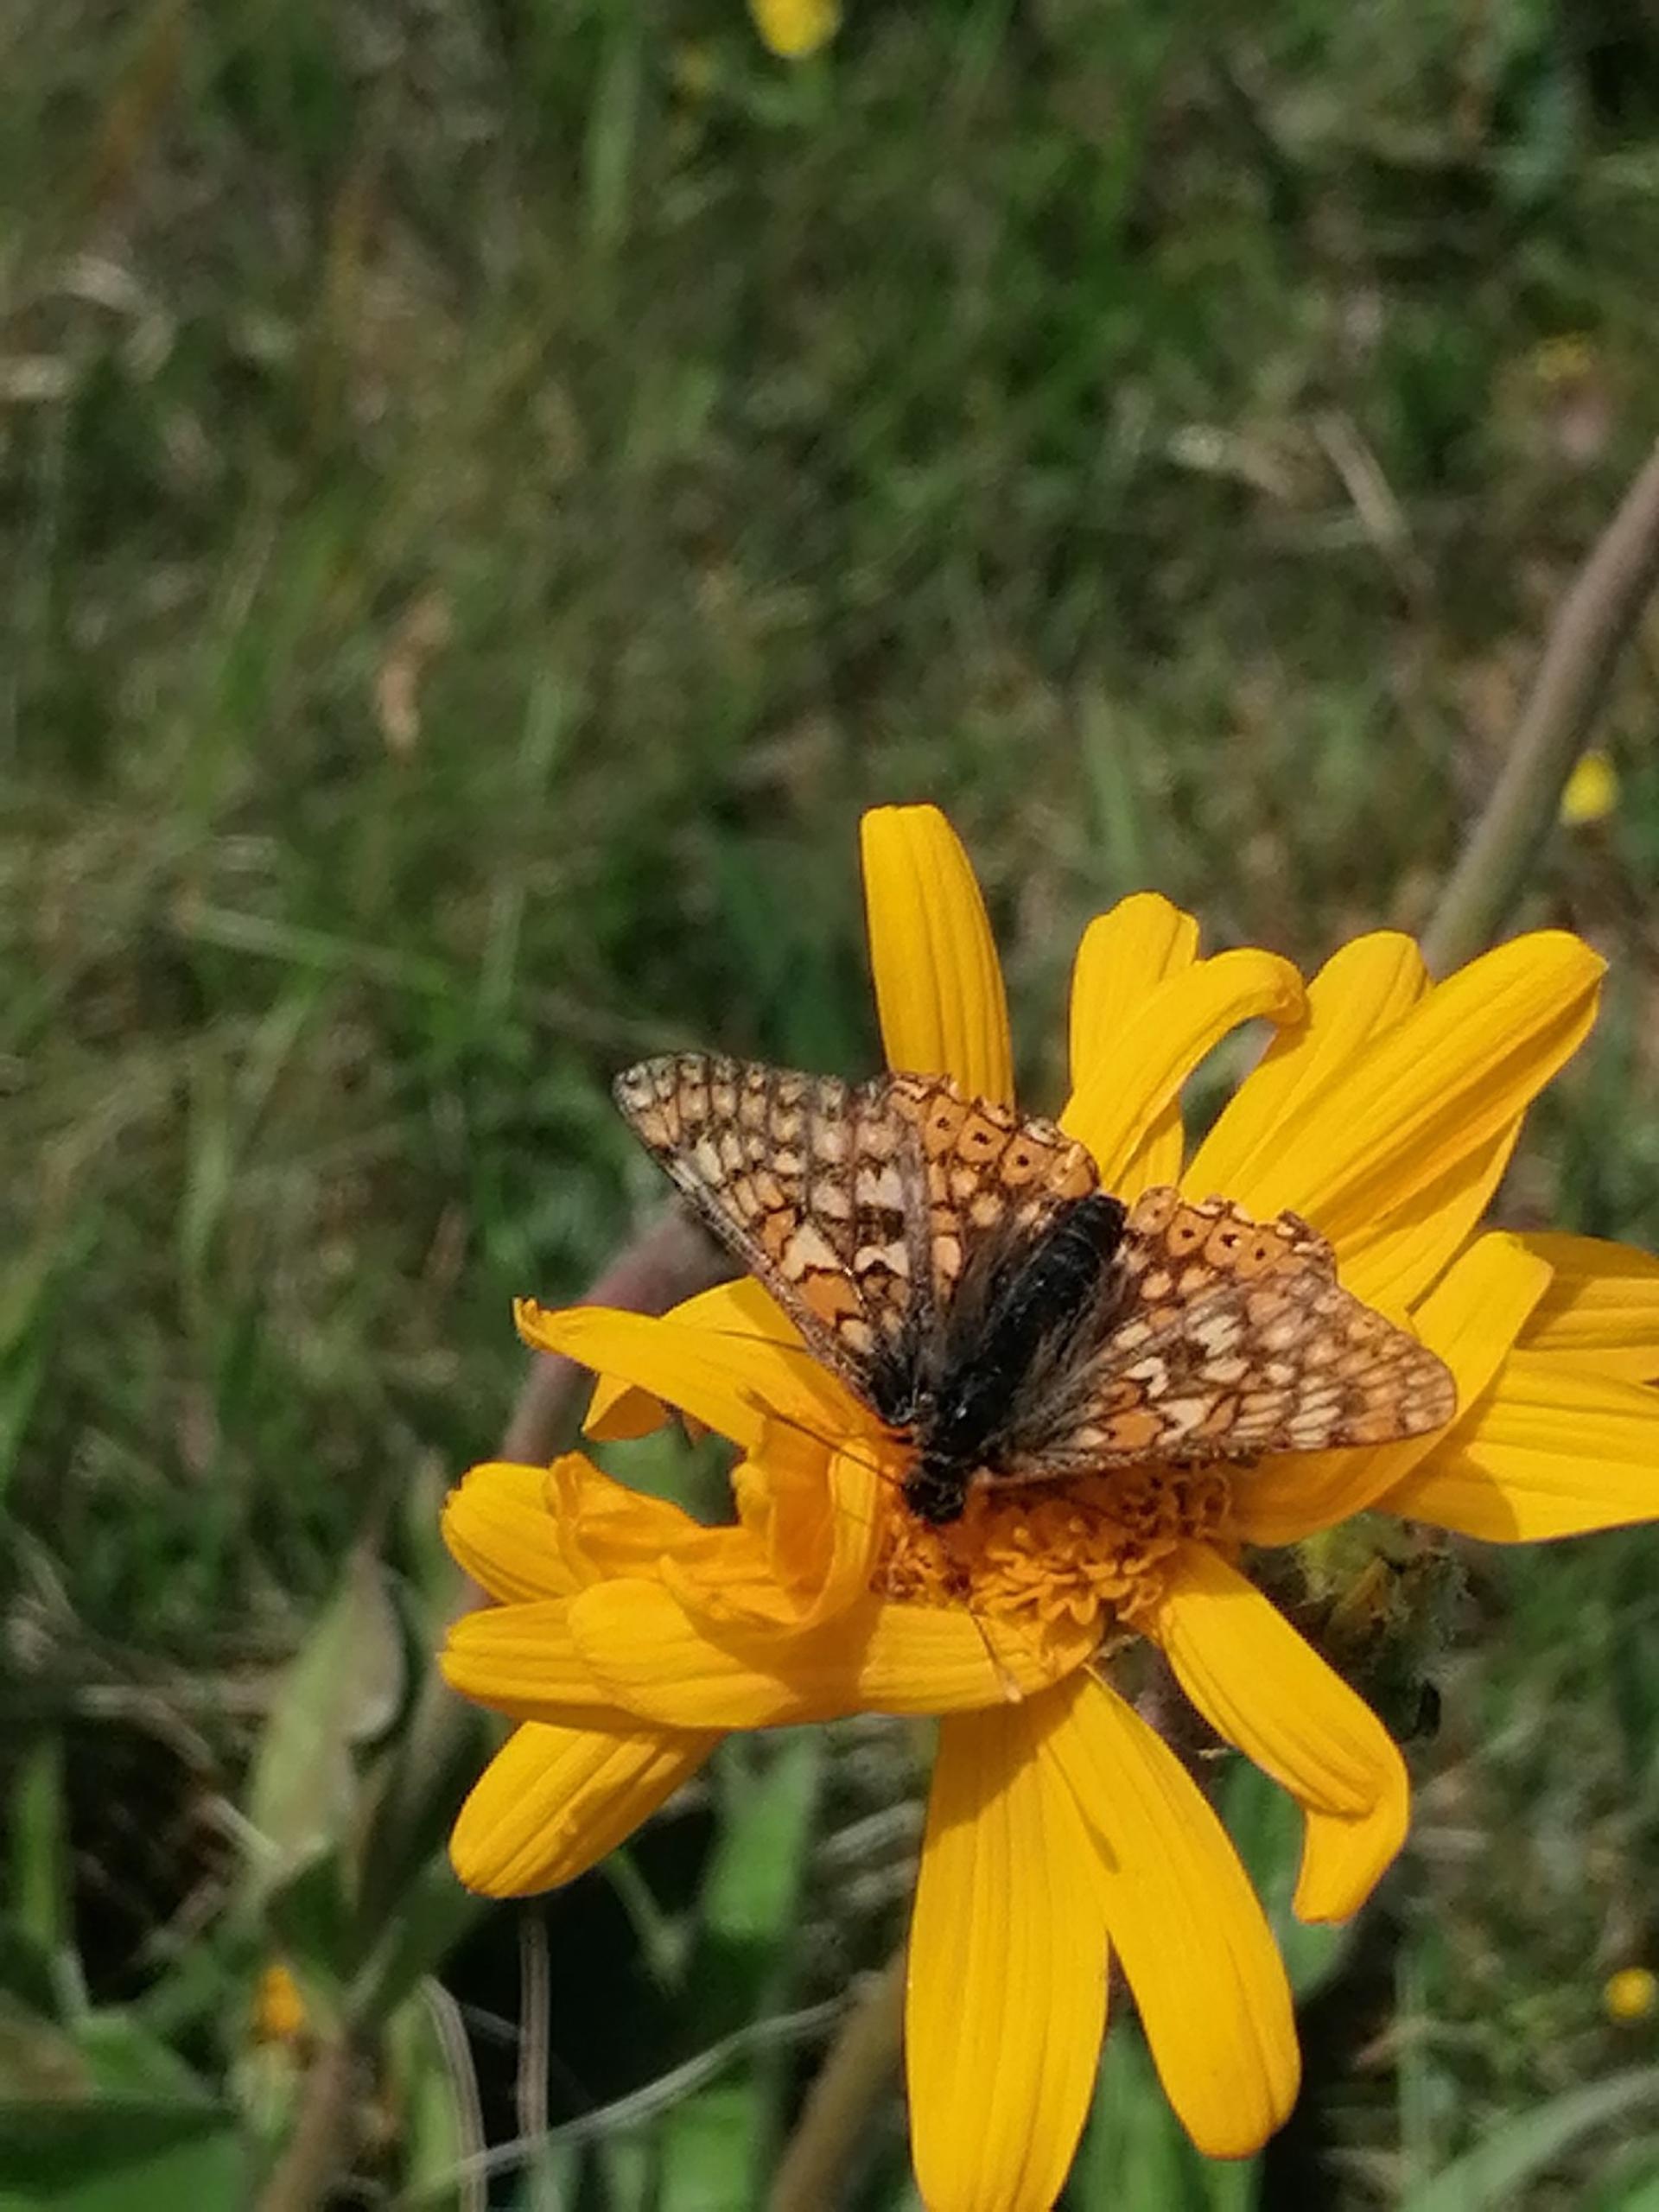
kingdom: Animalia
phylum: Arthropoda
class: Insecta
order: Lepidoptera
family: Nymphalidae
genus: Euphydryas
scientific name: Euphydryas aurinia
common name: Hedepletvinge
